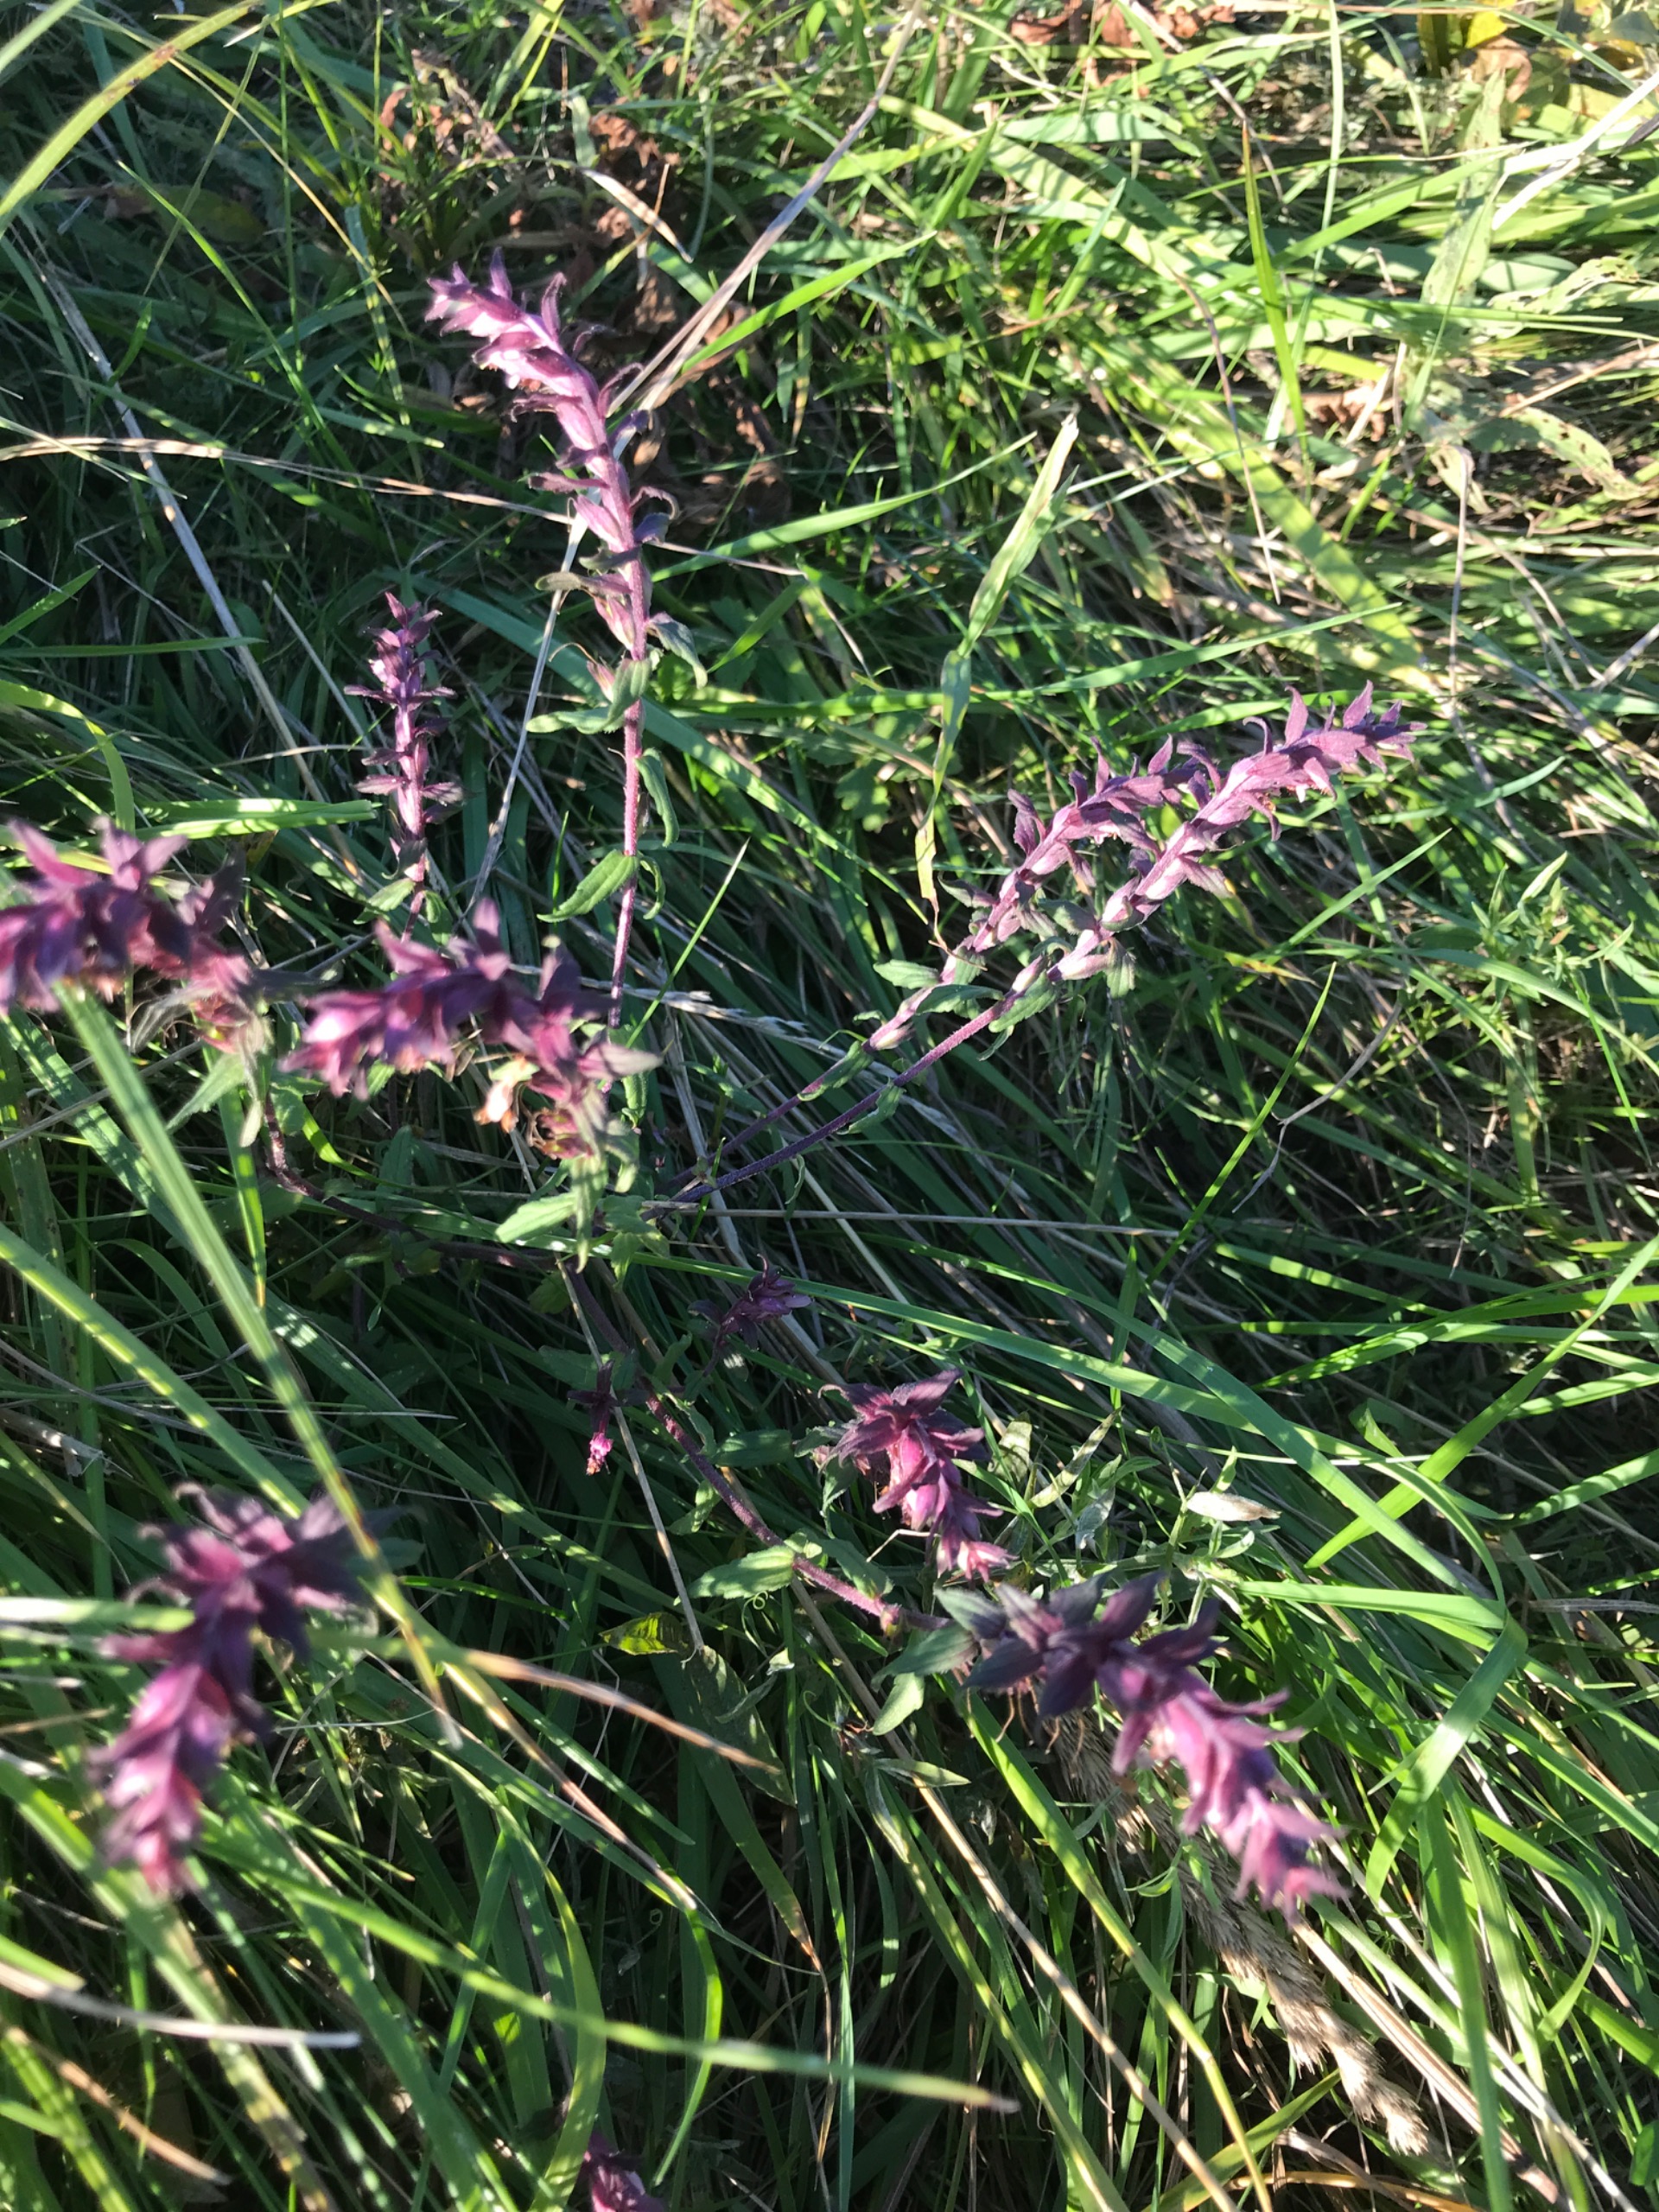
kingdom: Plantae
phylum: Tracheophyta
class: Magnoliopsida
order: Lamiales
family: Orobanchaceae
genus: Odontites
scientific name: Odontites vulgaris
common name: Høst-rødtop
